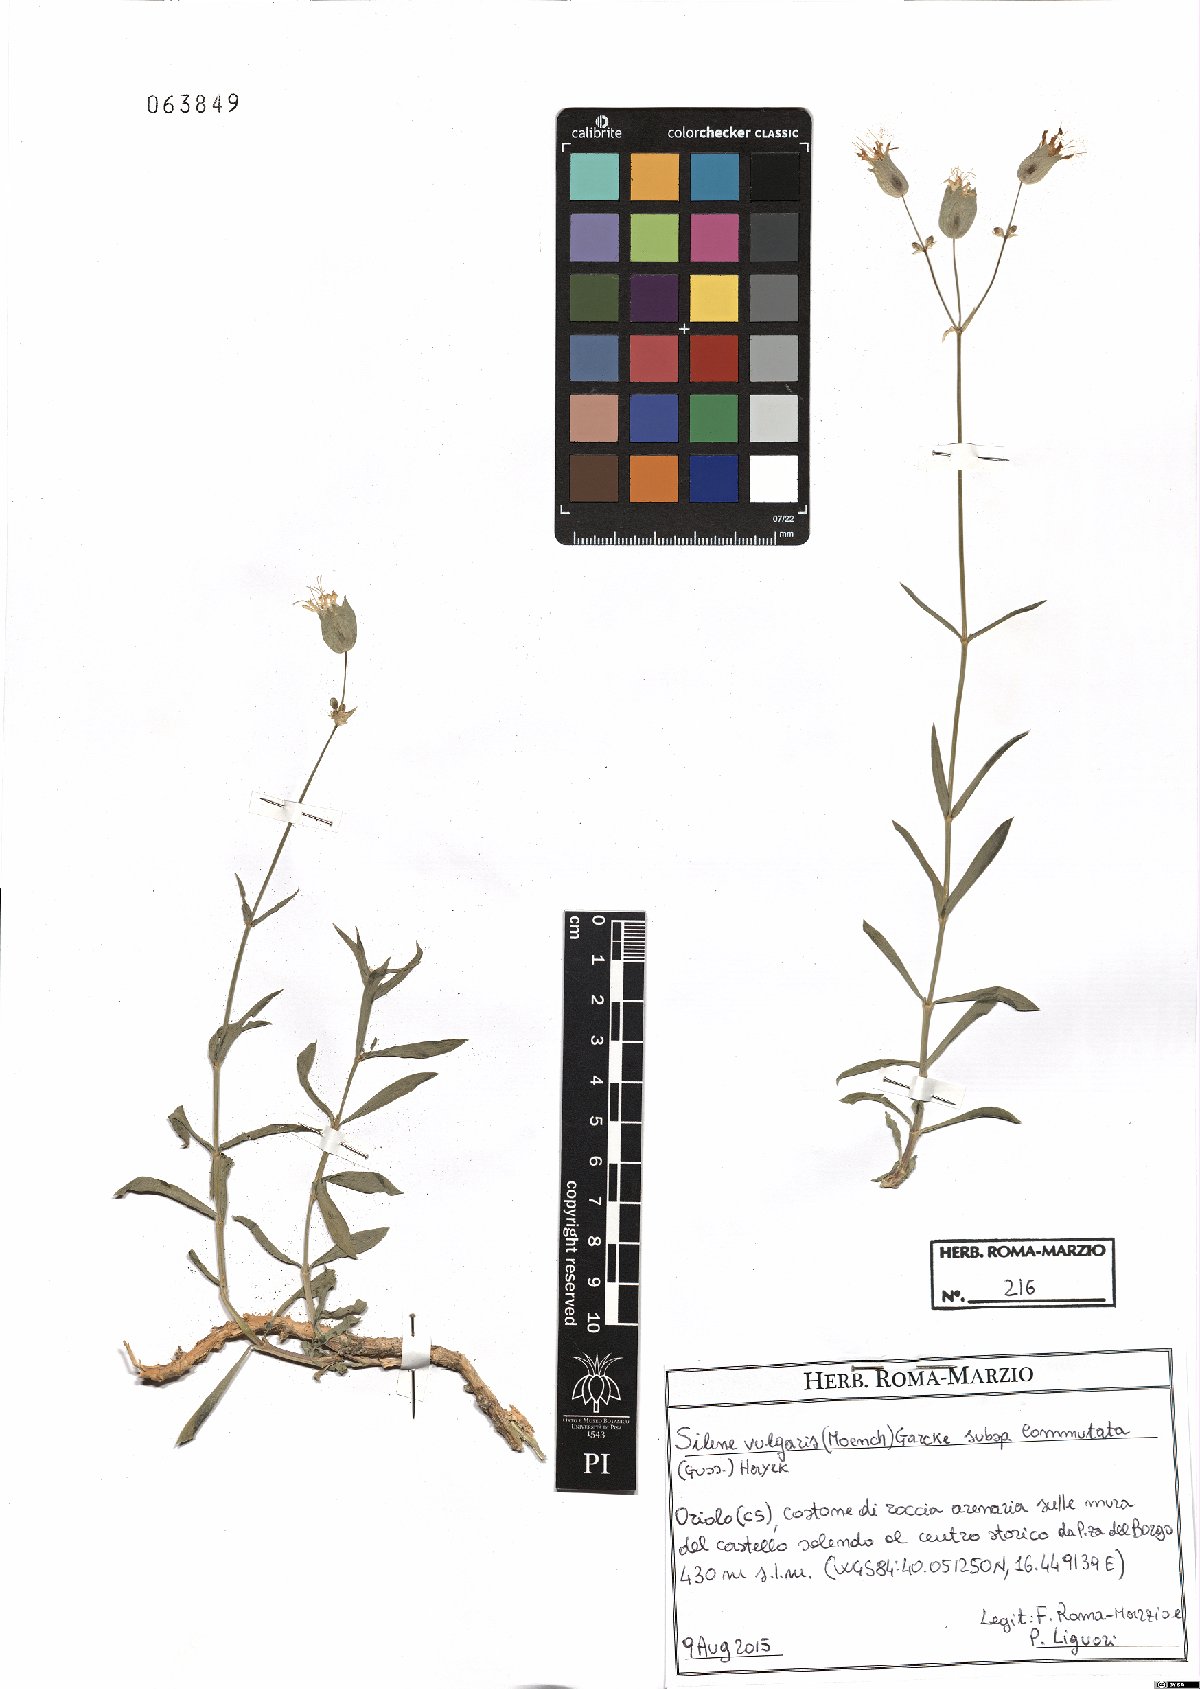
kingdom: Plantae
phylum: Tracheophyta
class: Magnoliopsida
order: Caryophyllales
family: Caryophyllaceae
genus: Silene
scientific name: Silene commutata
